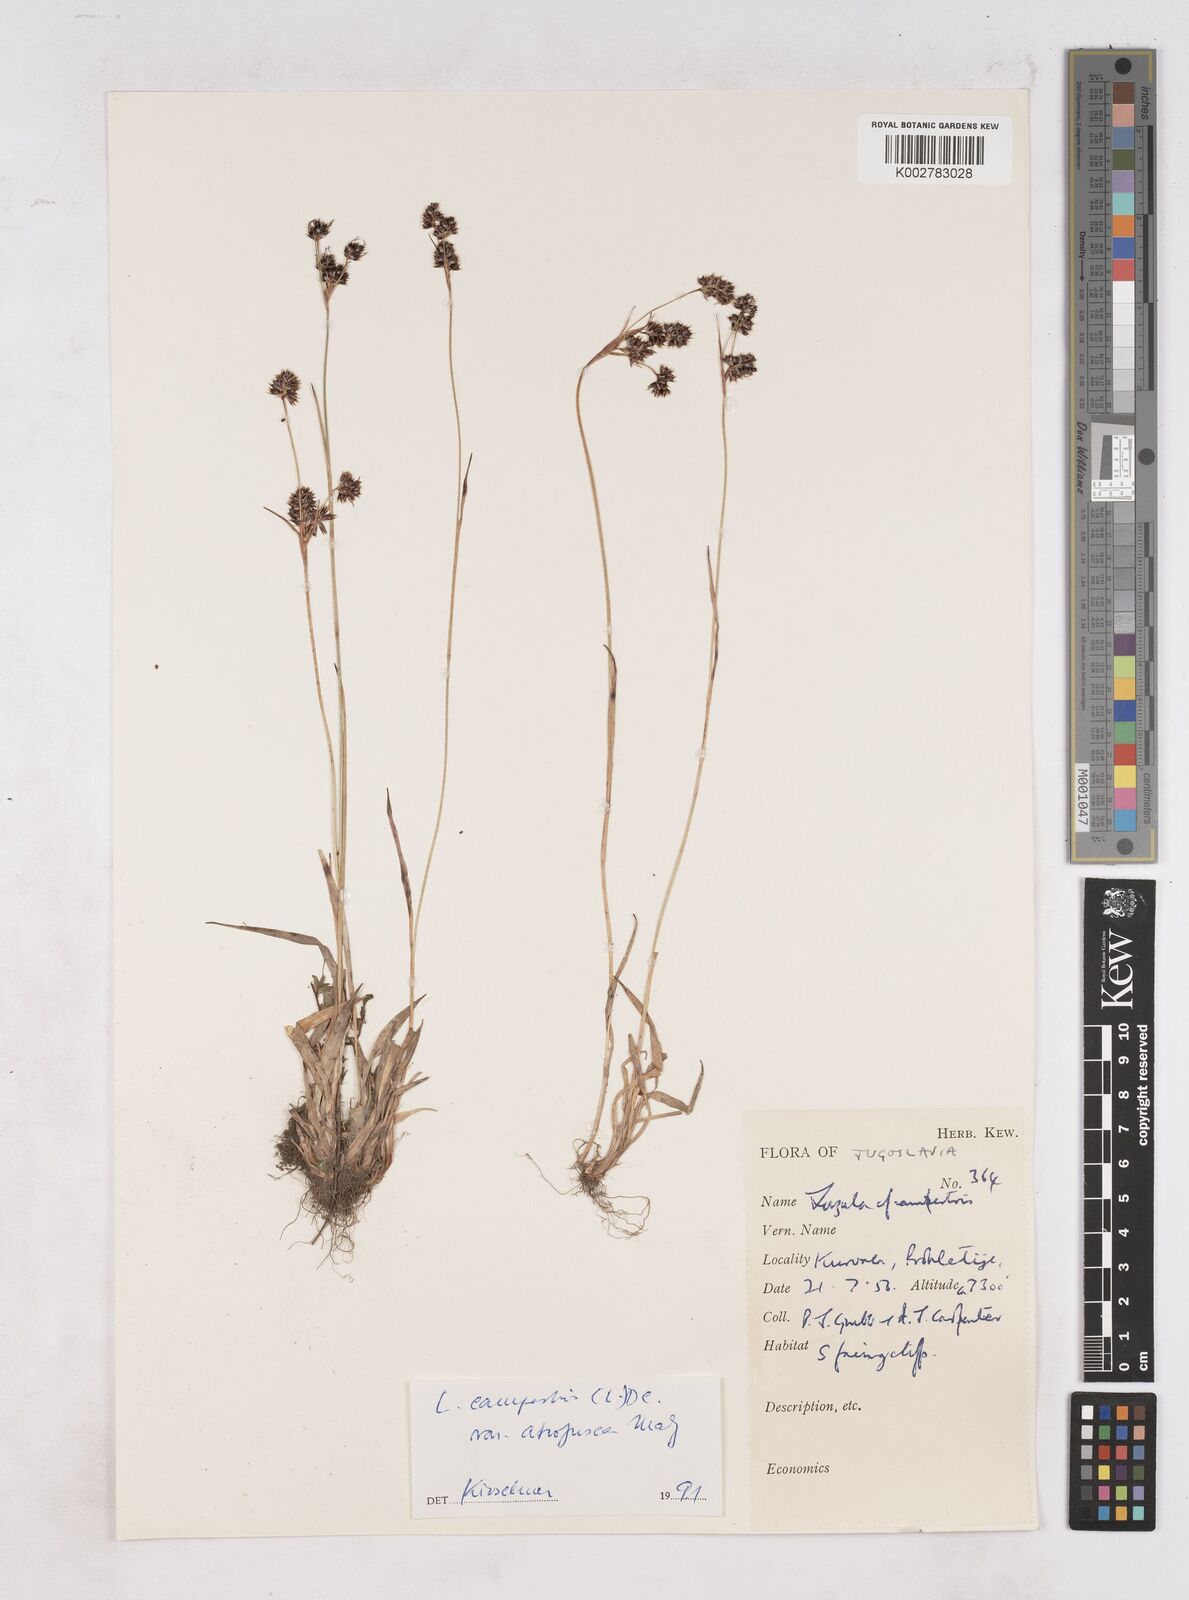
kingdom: Plantae
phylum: Tracheophyta
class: Liliopsida
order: Poales
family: Juncaceae
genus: Luzula
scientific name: Luzula campestris
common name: Field wood-rush
